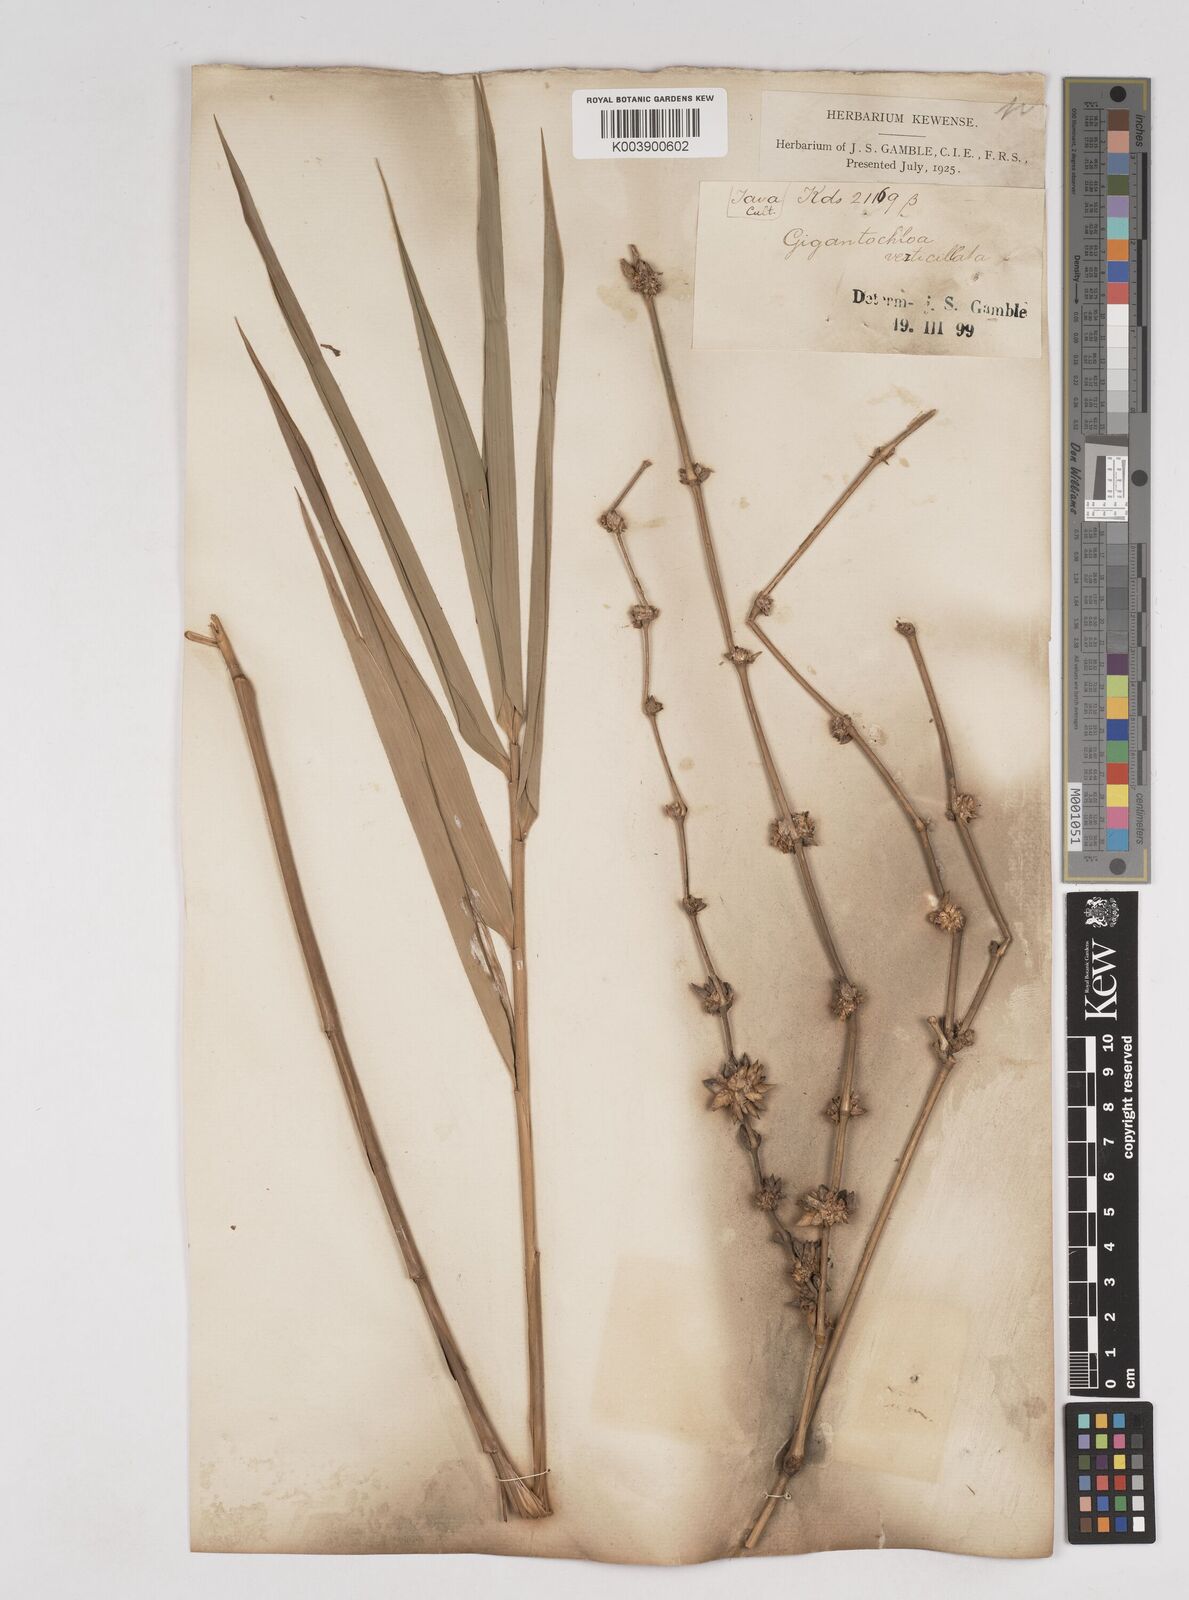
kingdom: Plantae
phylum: Tracheophyta
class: Liliopsida
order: Poales
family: Poaceae
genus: Gigantochloa
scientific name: Gigantochloa
